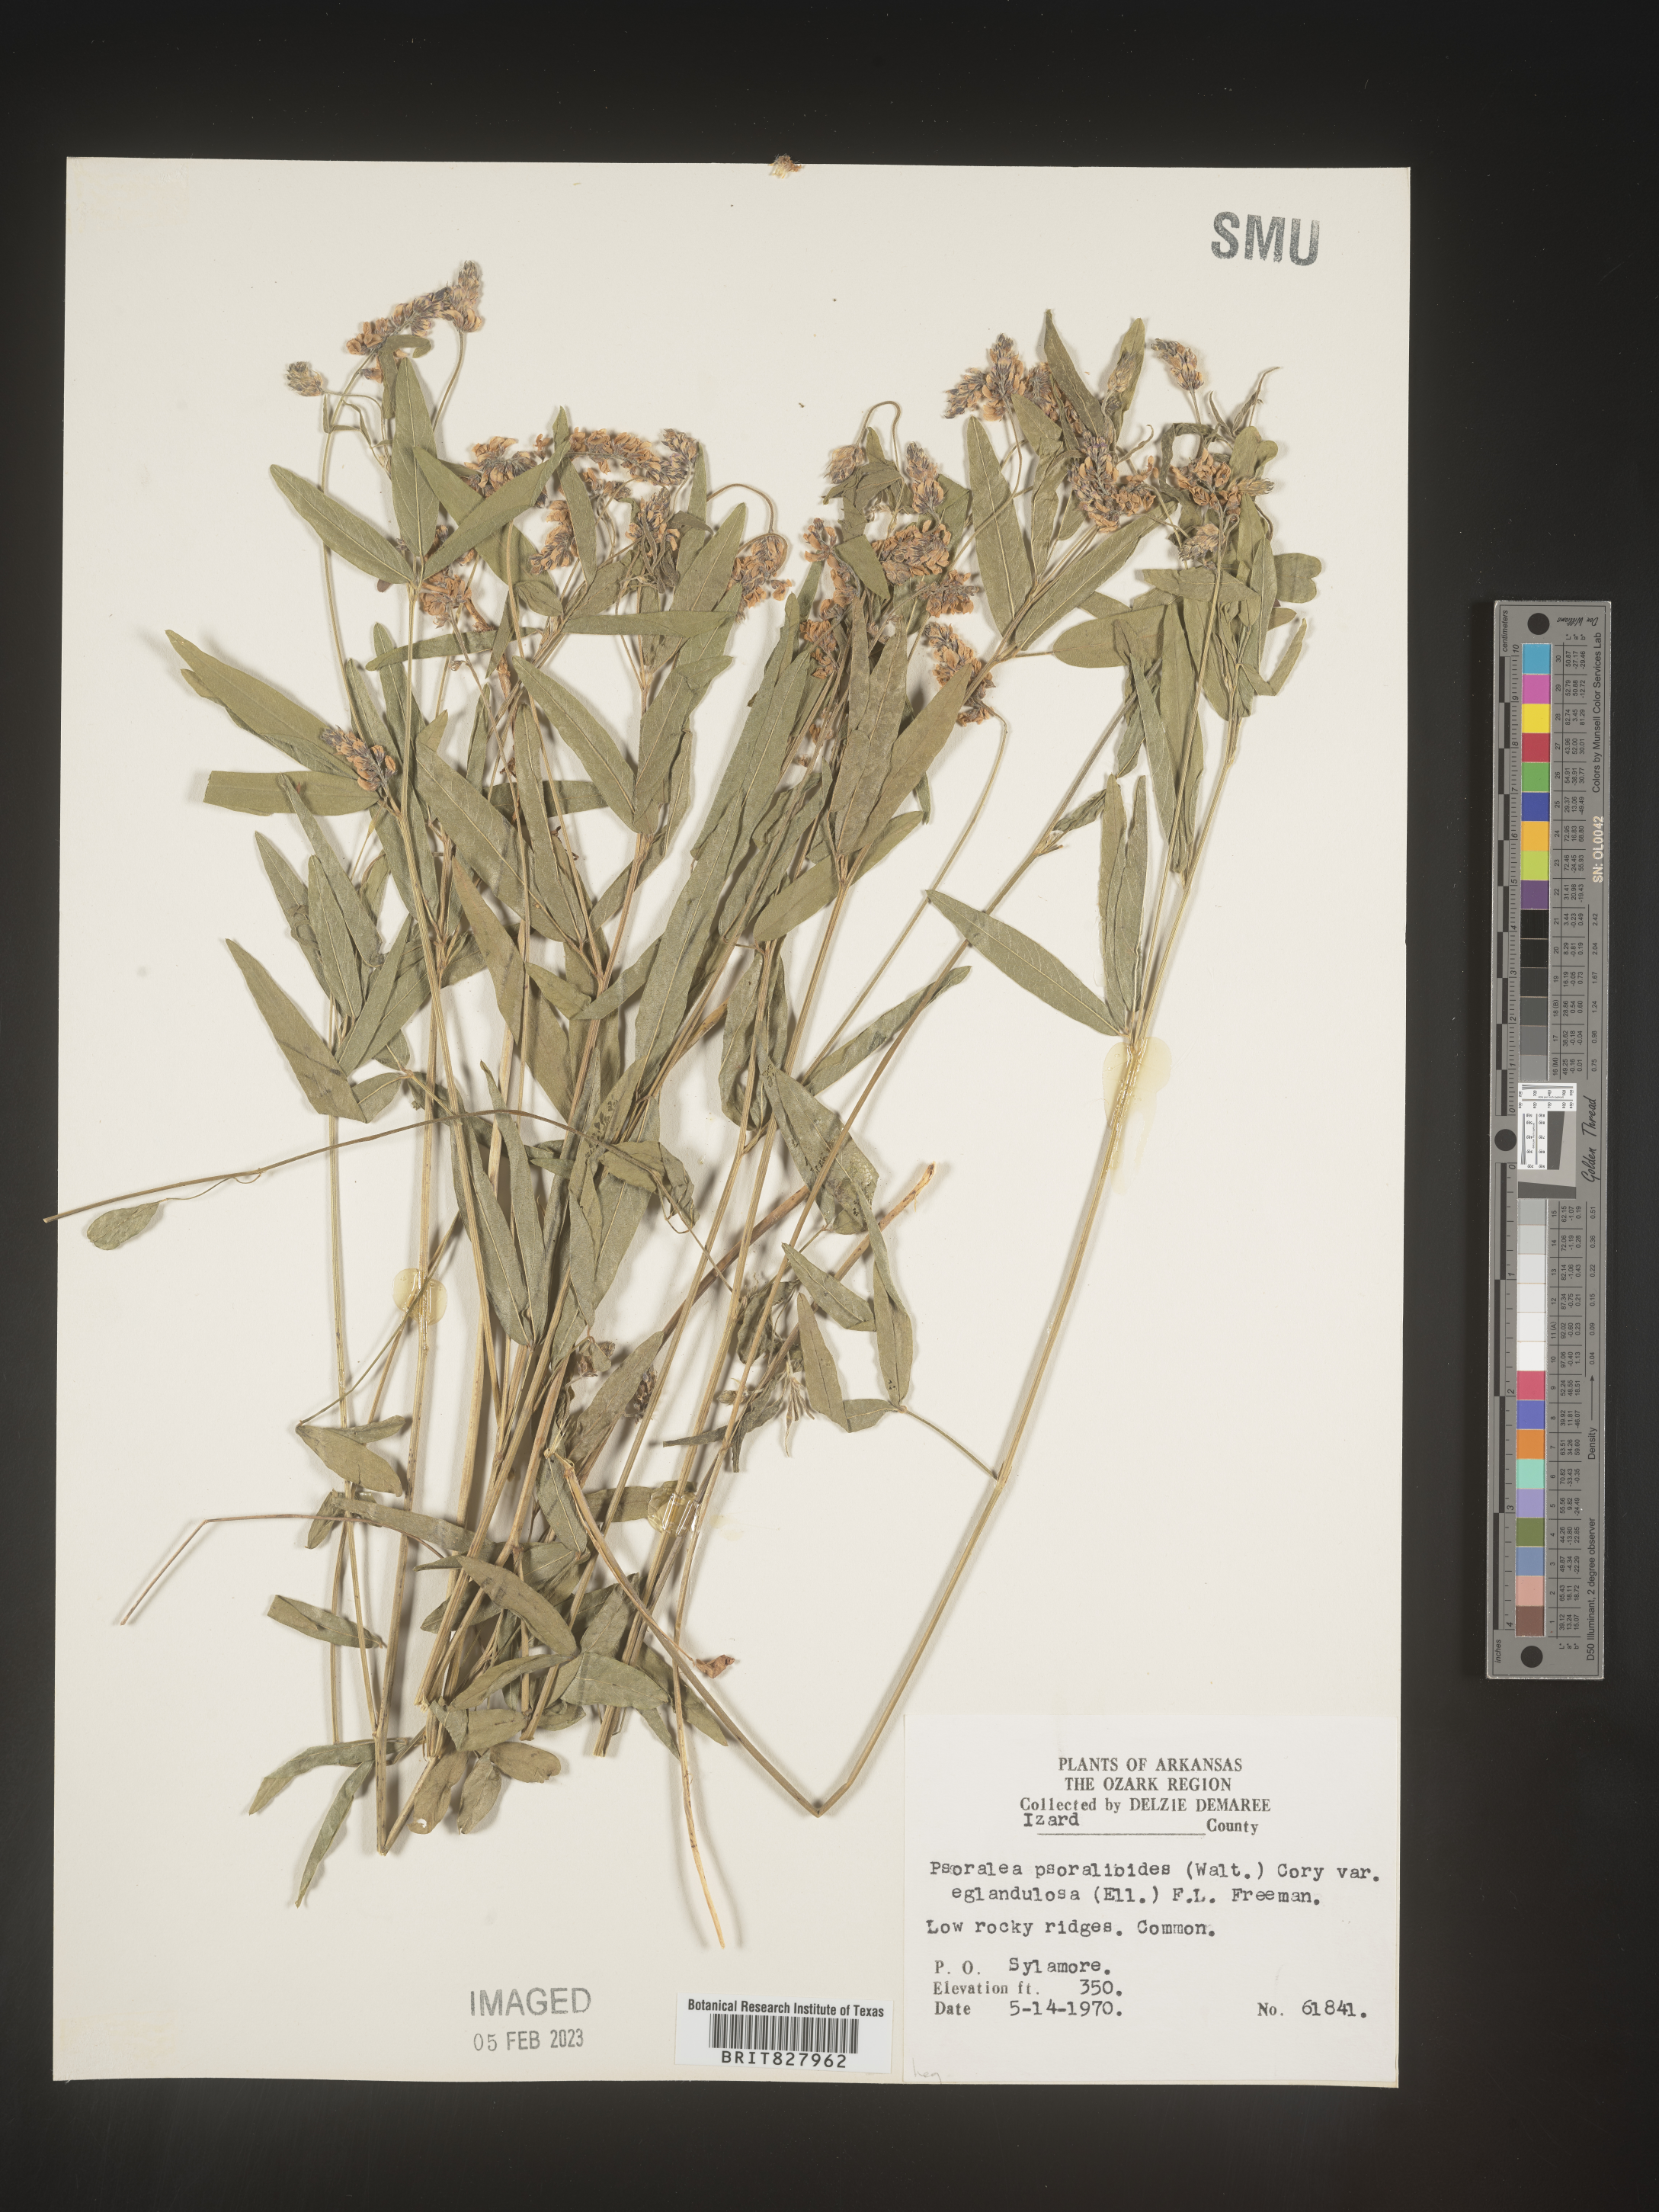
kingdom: Plantae
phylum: Tracheophyta
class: Magnoliopsida
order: Fabales
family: Fabaceae
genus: Orbexilum
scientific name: Orbexilum pedunculatum
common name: Sampson's snakeroot
